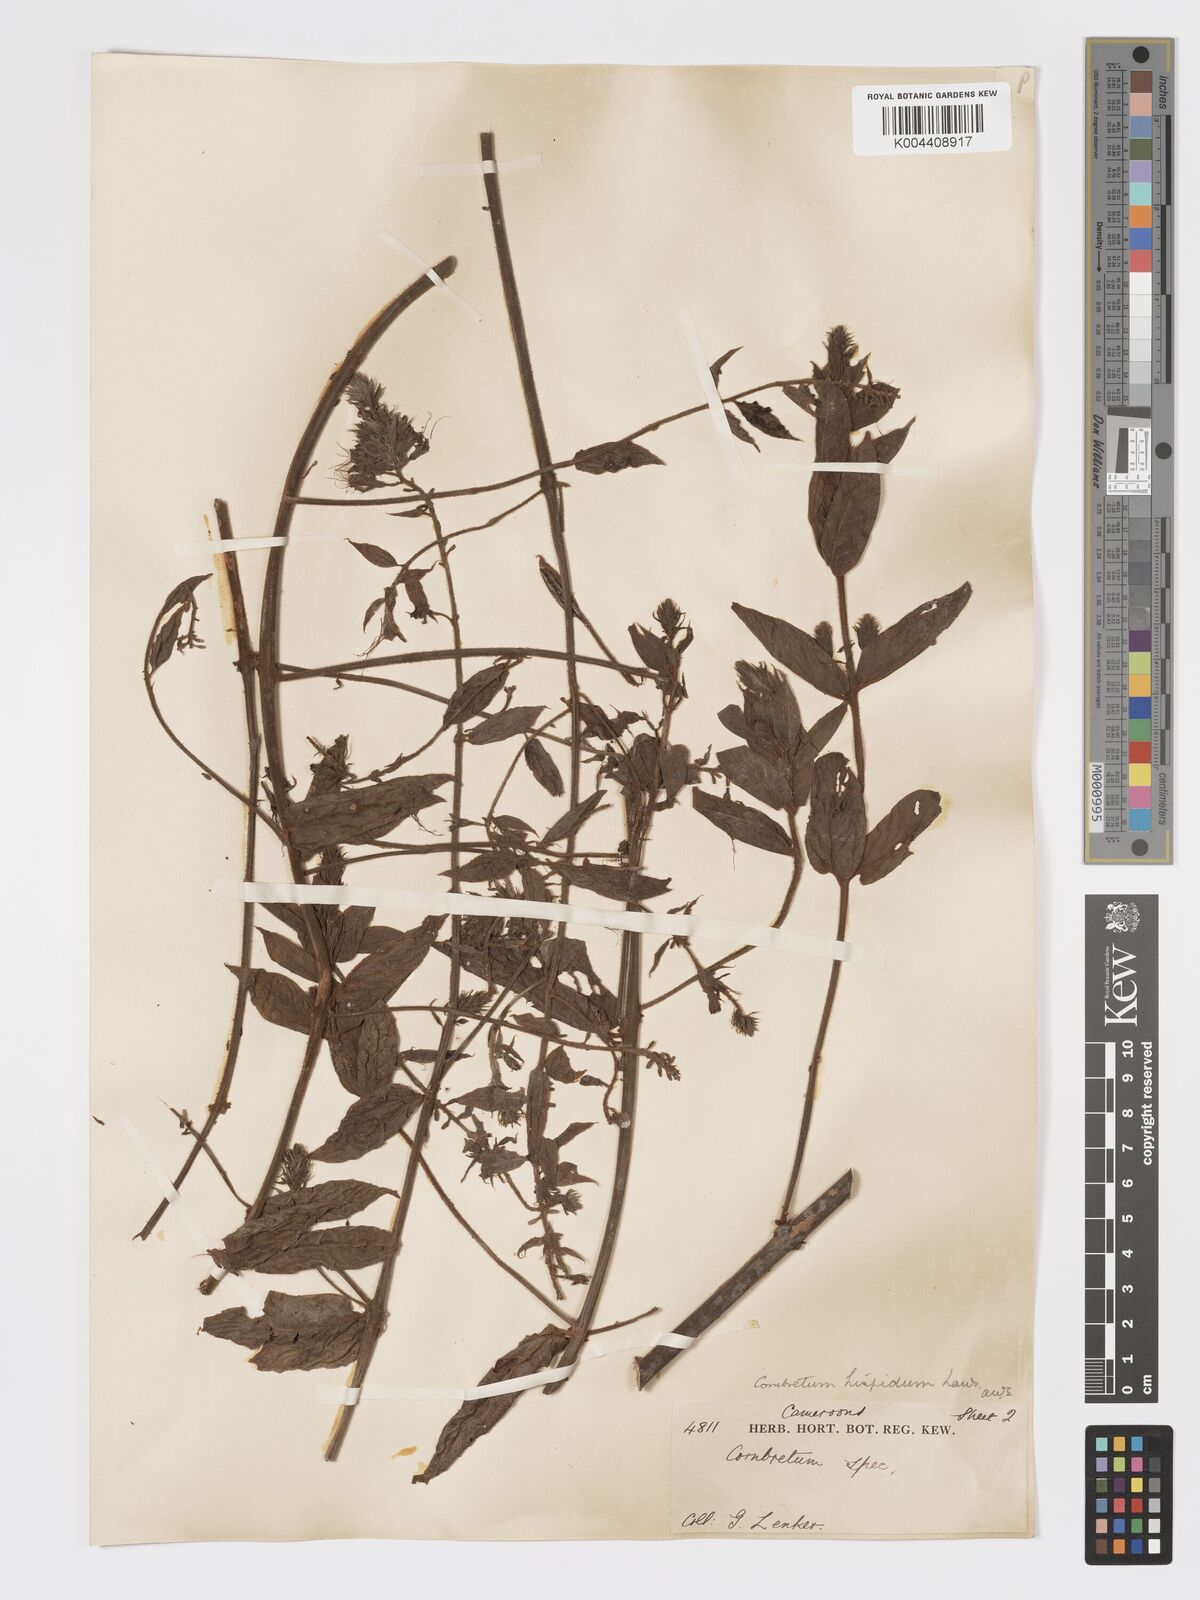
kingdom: Plantae
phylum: Tracheophyta
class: Magnoliopsida
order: Myrtales
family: Combretaceae
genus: Combretum
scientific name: Combretum
